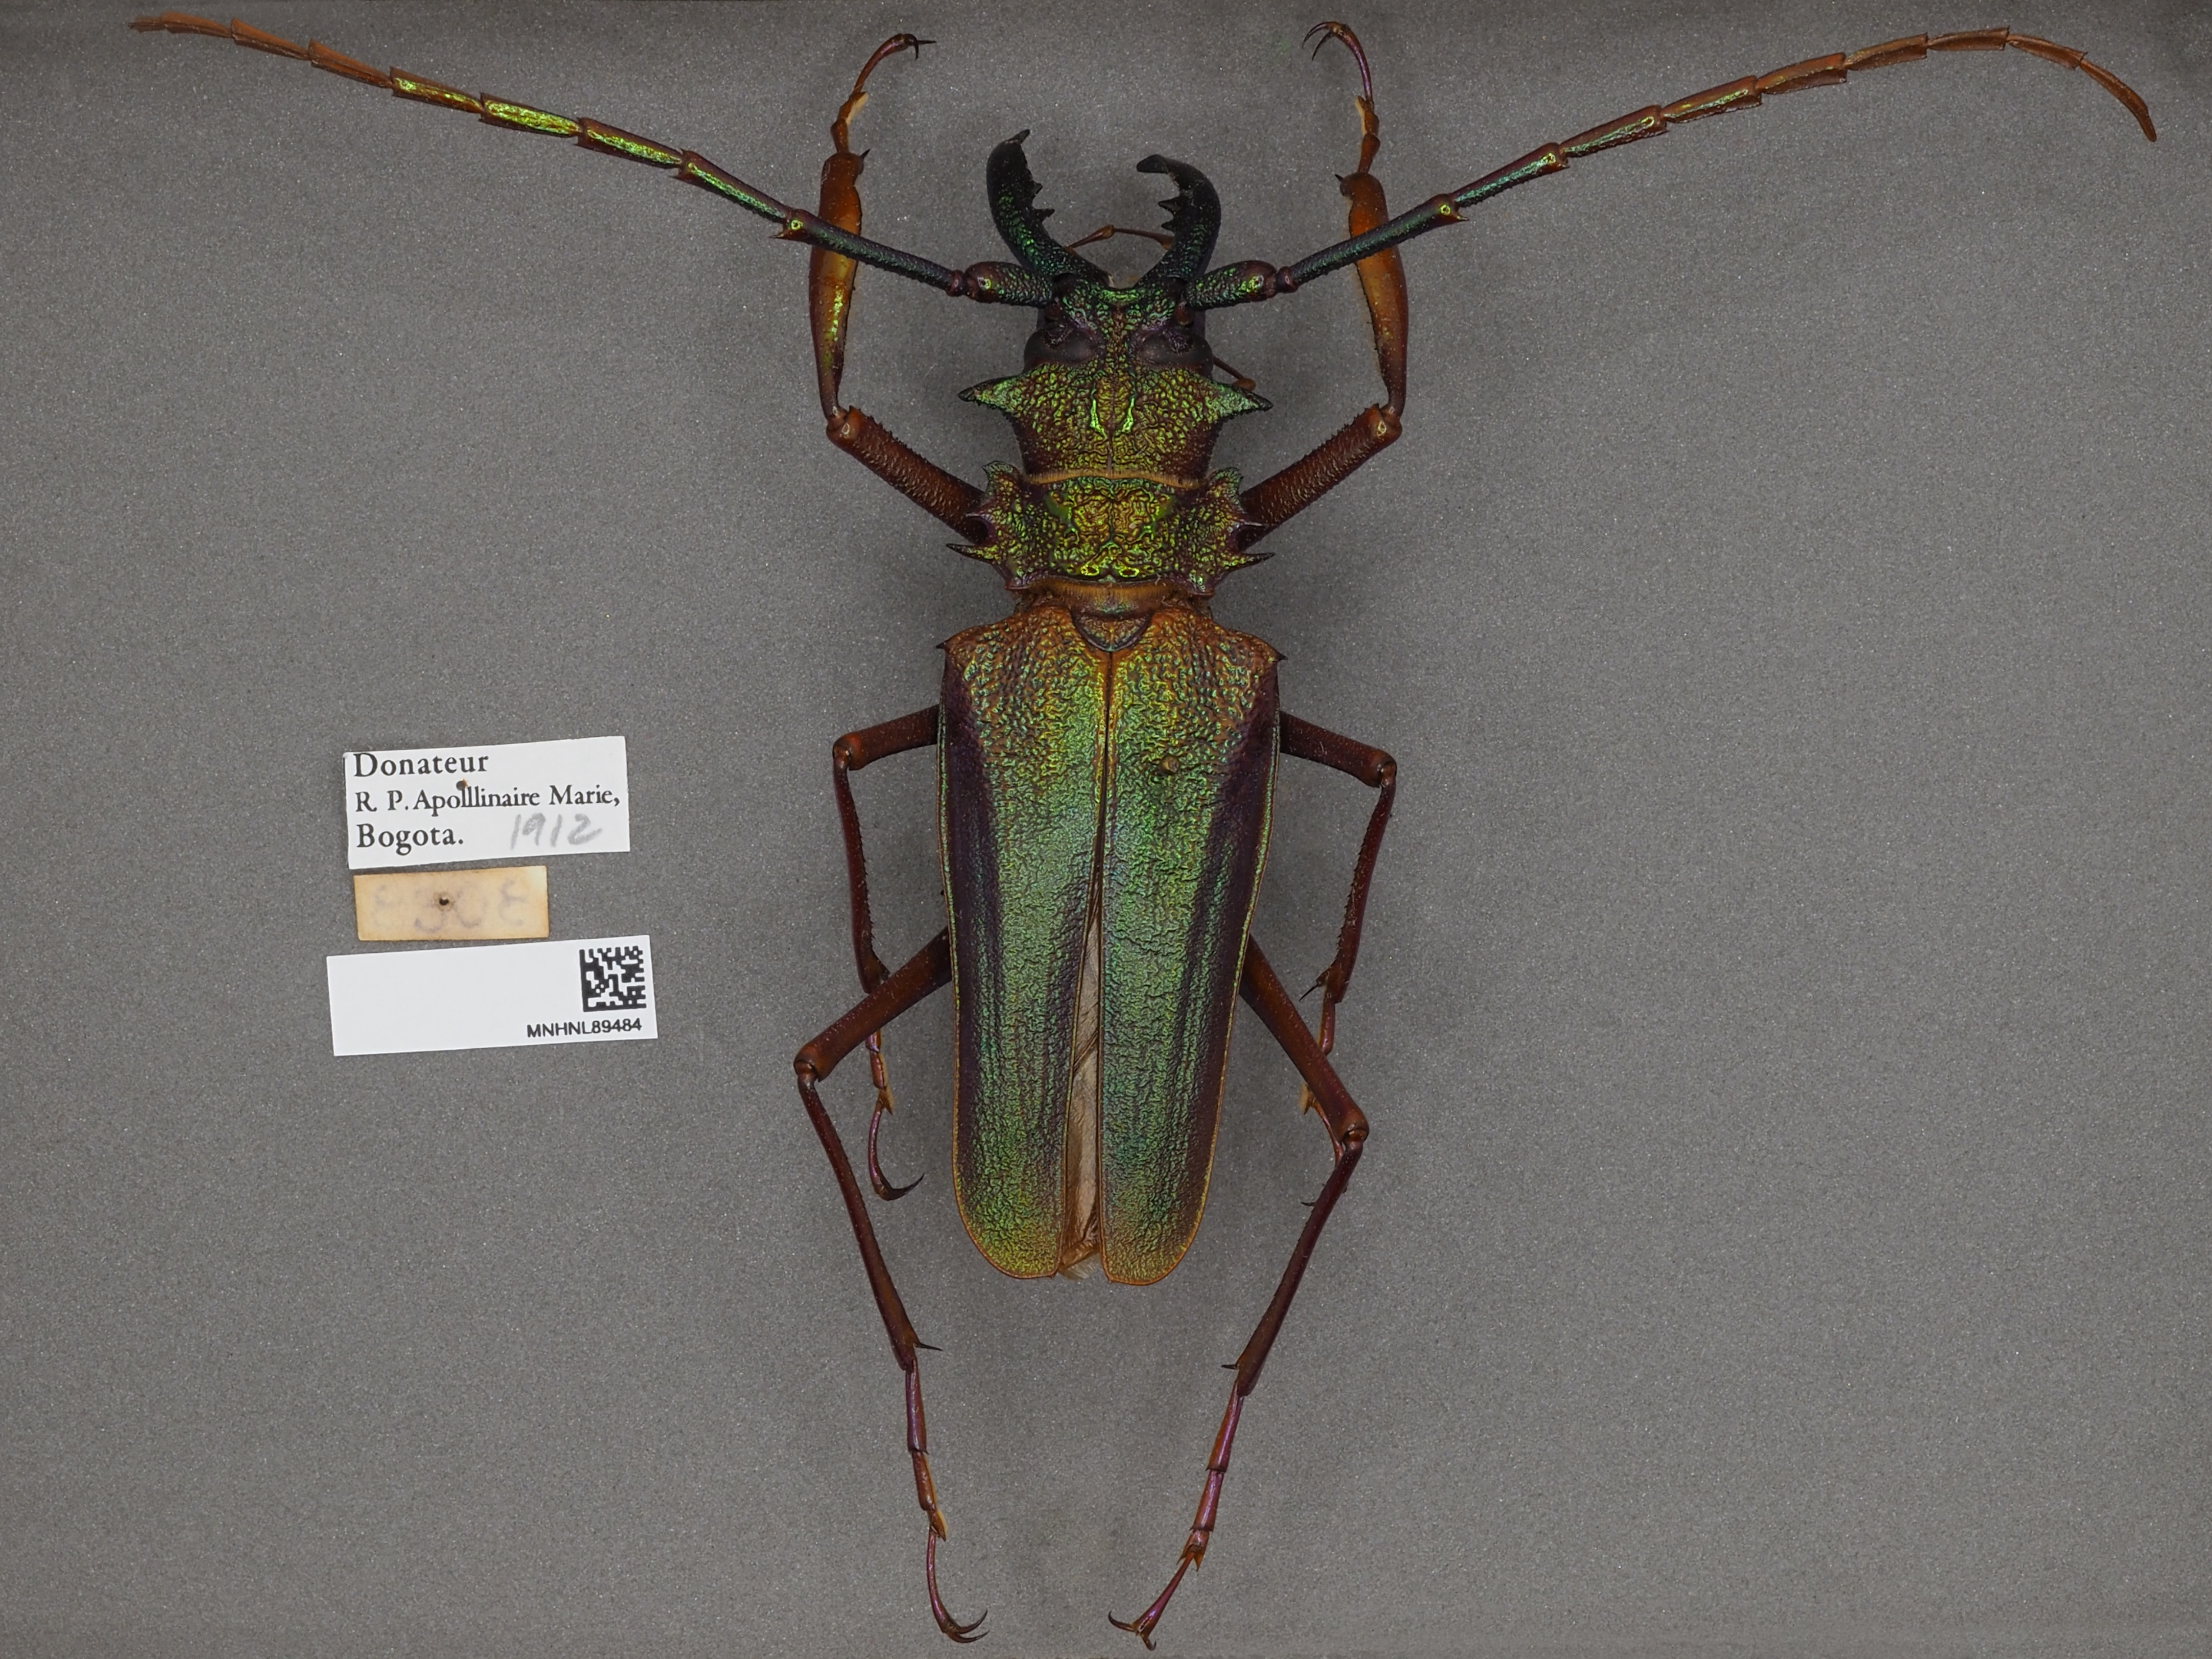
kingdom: Animalia
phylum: Arthropoda
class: Insecta
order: Coleoptera
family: Cerambycidae
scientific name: Cerambycidae
